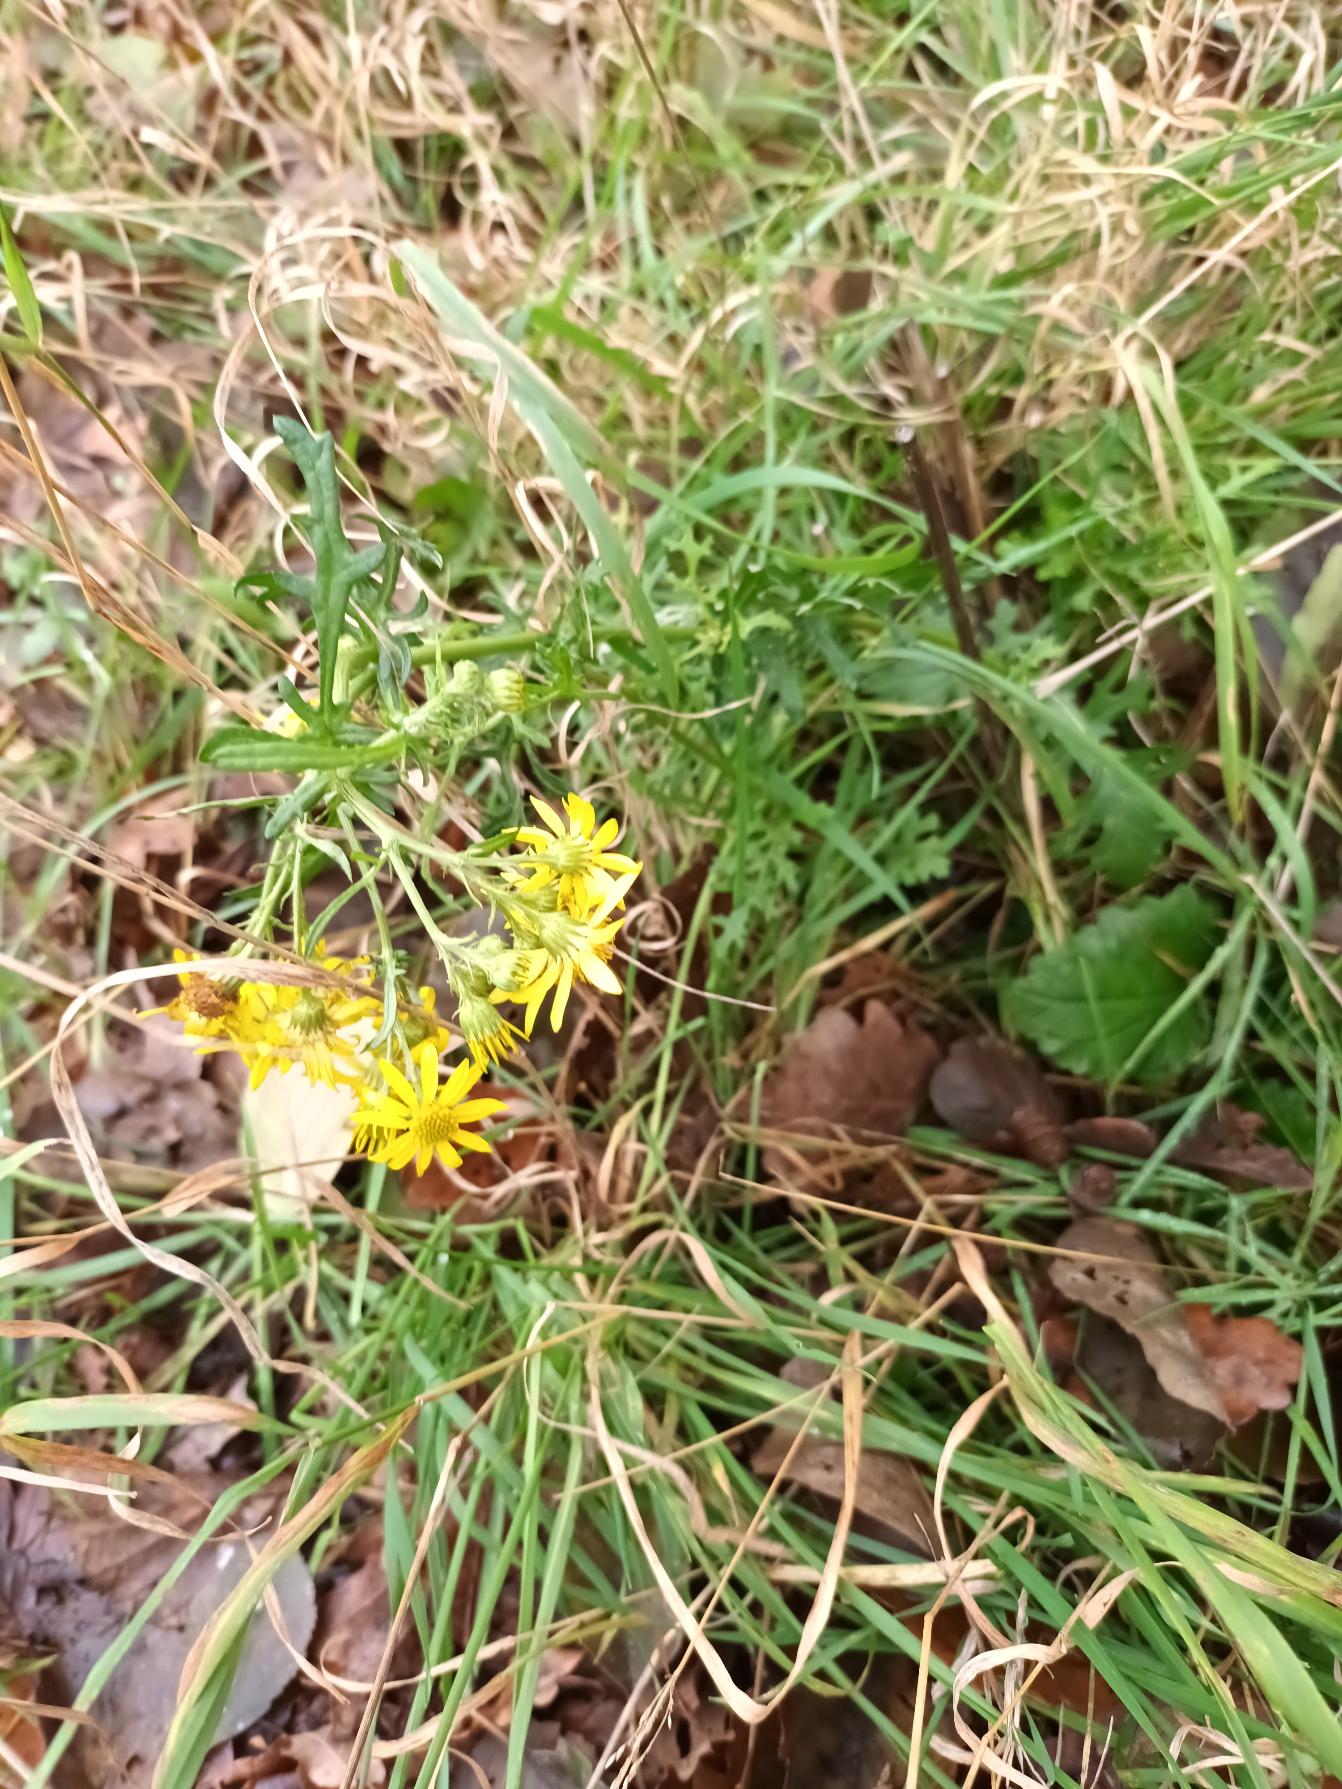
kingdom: Plantae
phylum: Tracheophyta
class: Magnoliopsida
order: Asterales
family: Asteraceae
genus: Jacobaea
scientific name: Jacobaea vulgaris
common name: Eng-brandbæger
